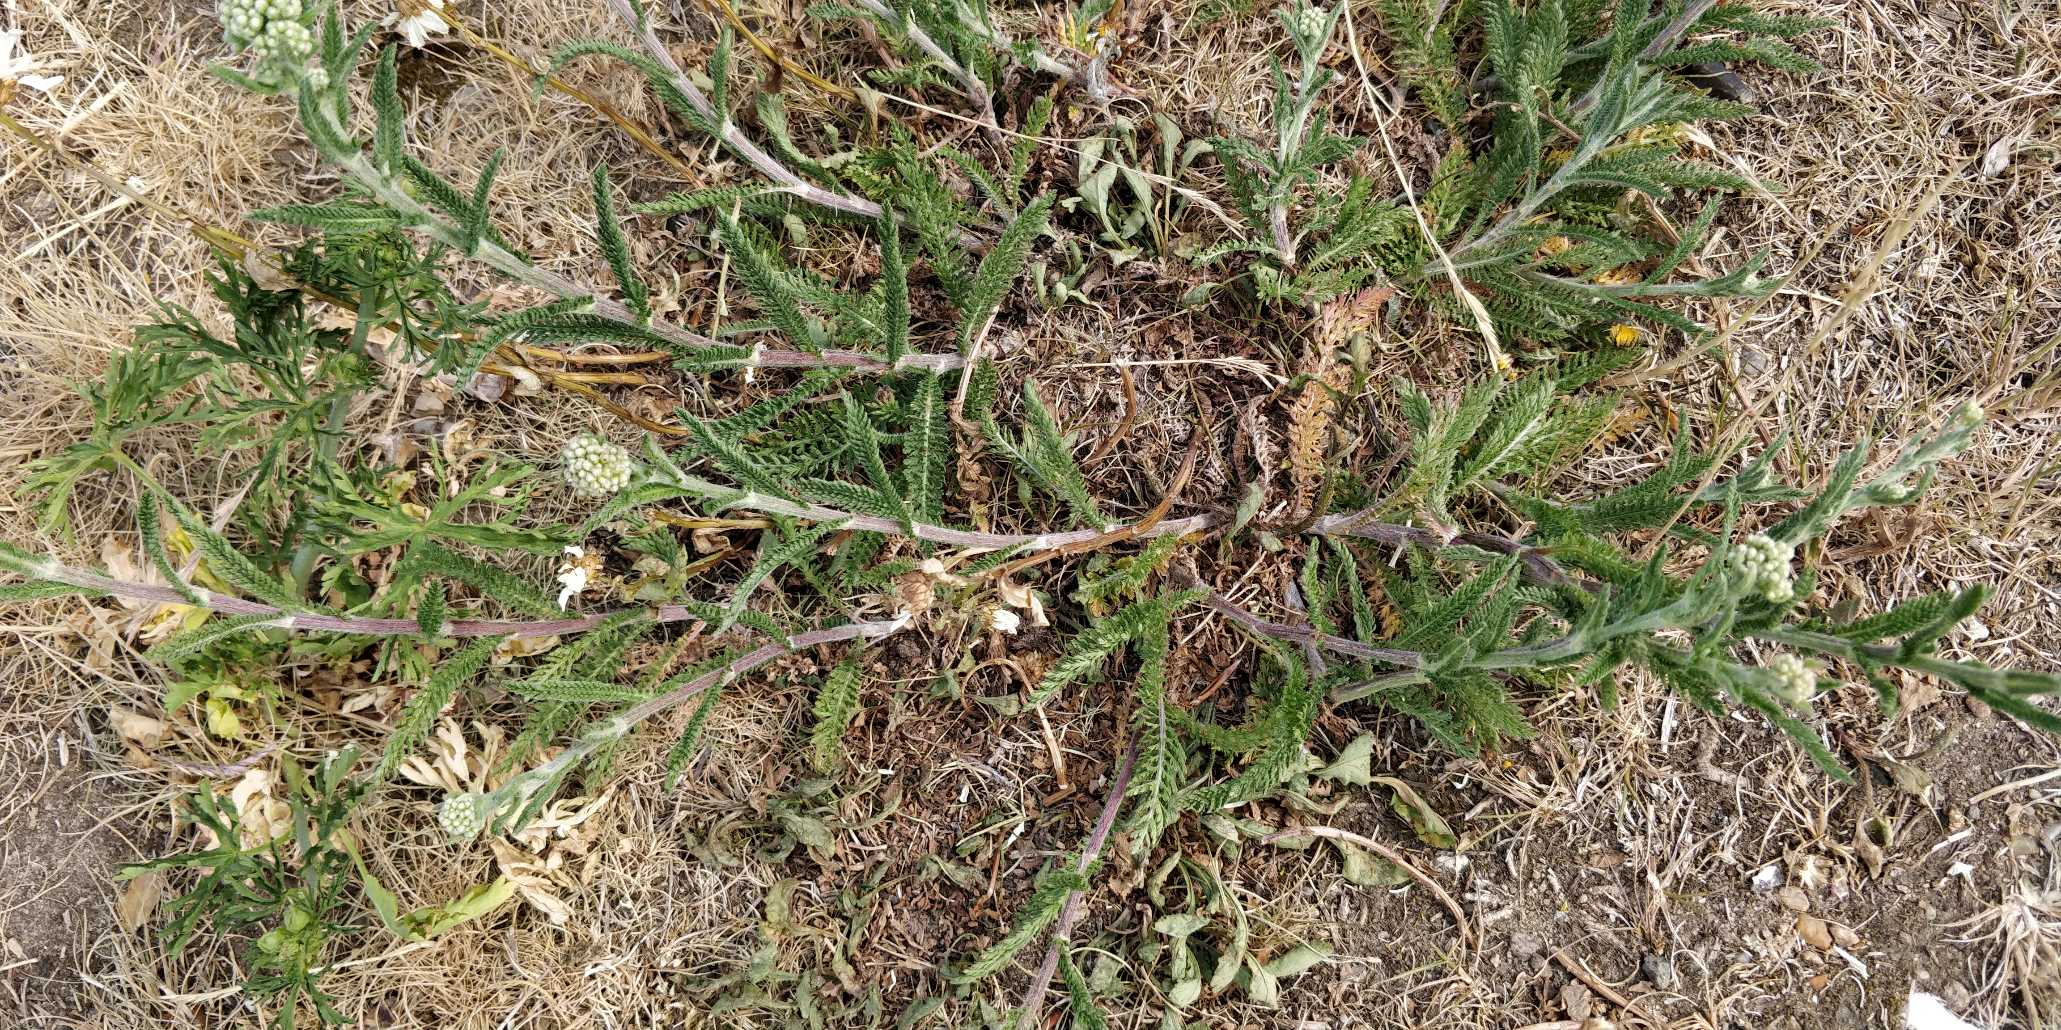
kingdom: Plantae
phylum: Tracheophyta
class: Magnoliopsida
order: Asterales
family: Asteraceae
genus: Achillea
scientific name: Achillea millefolium
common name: Almindelig røllike
